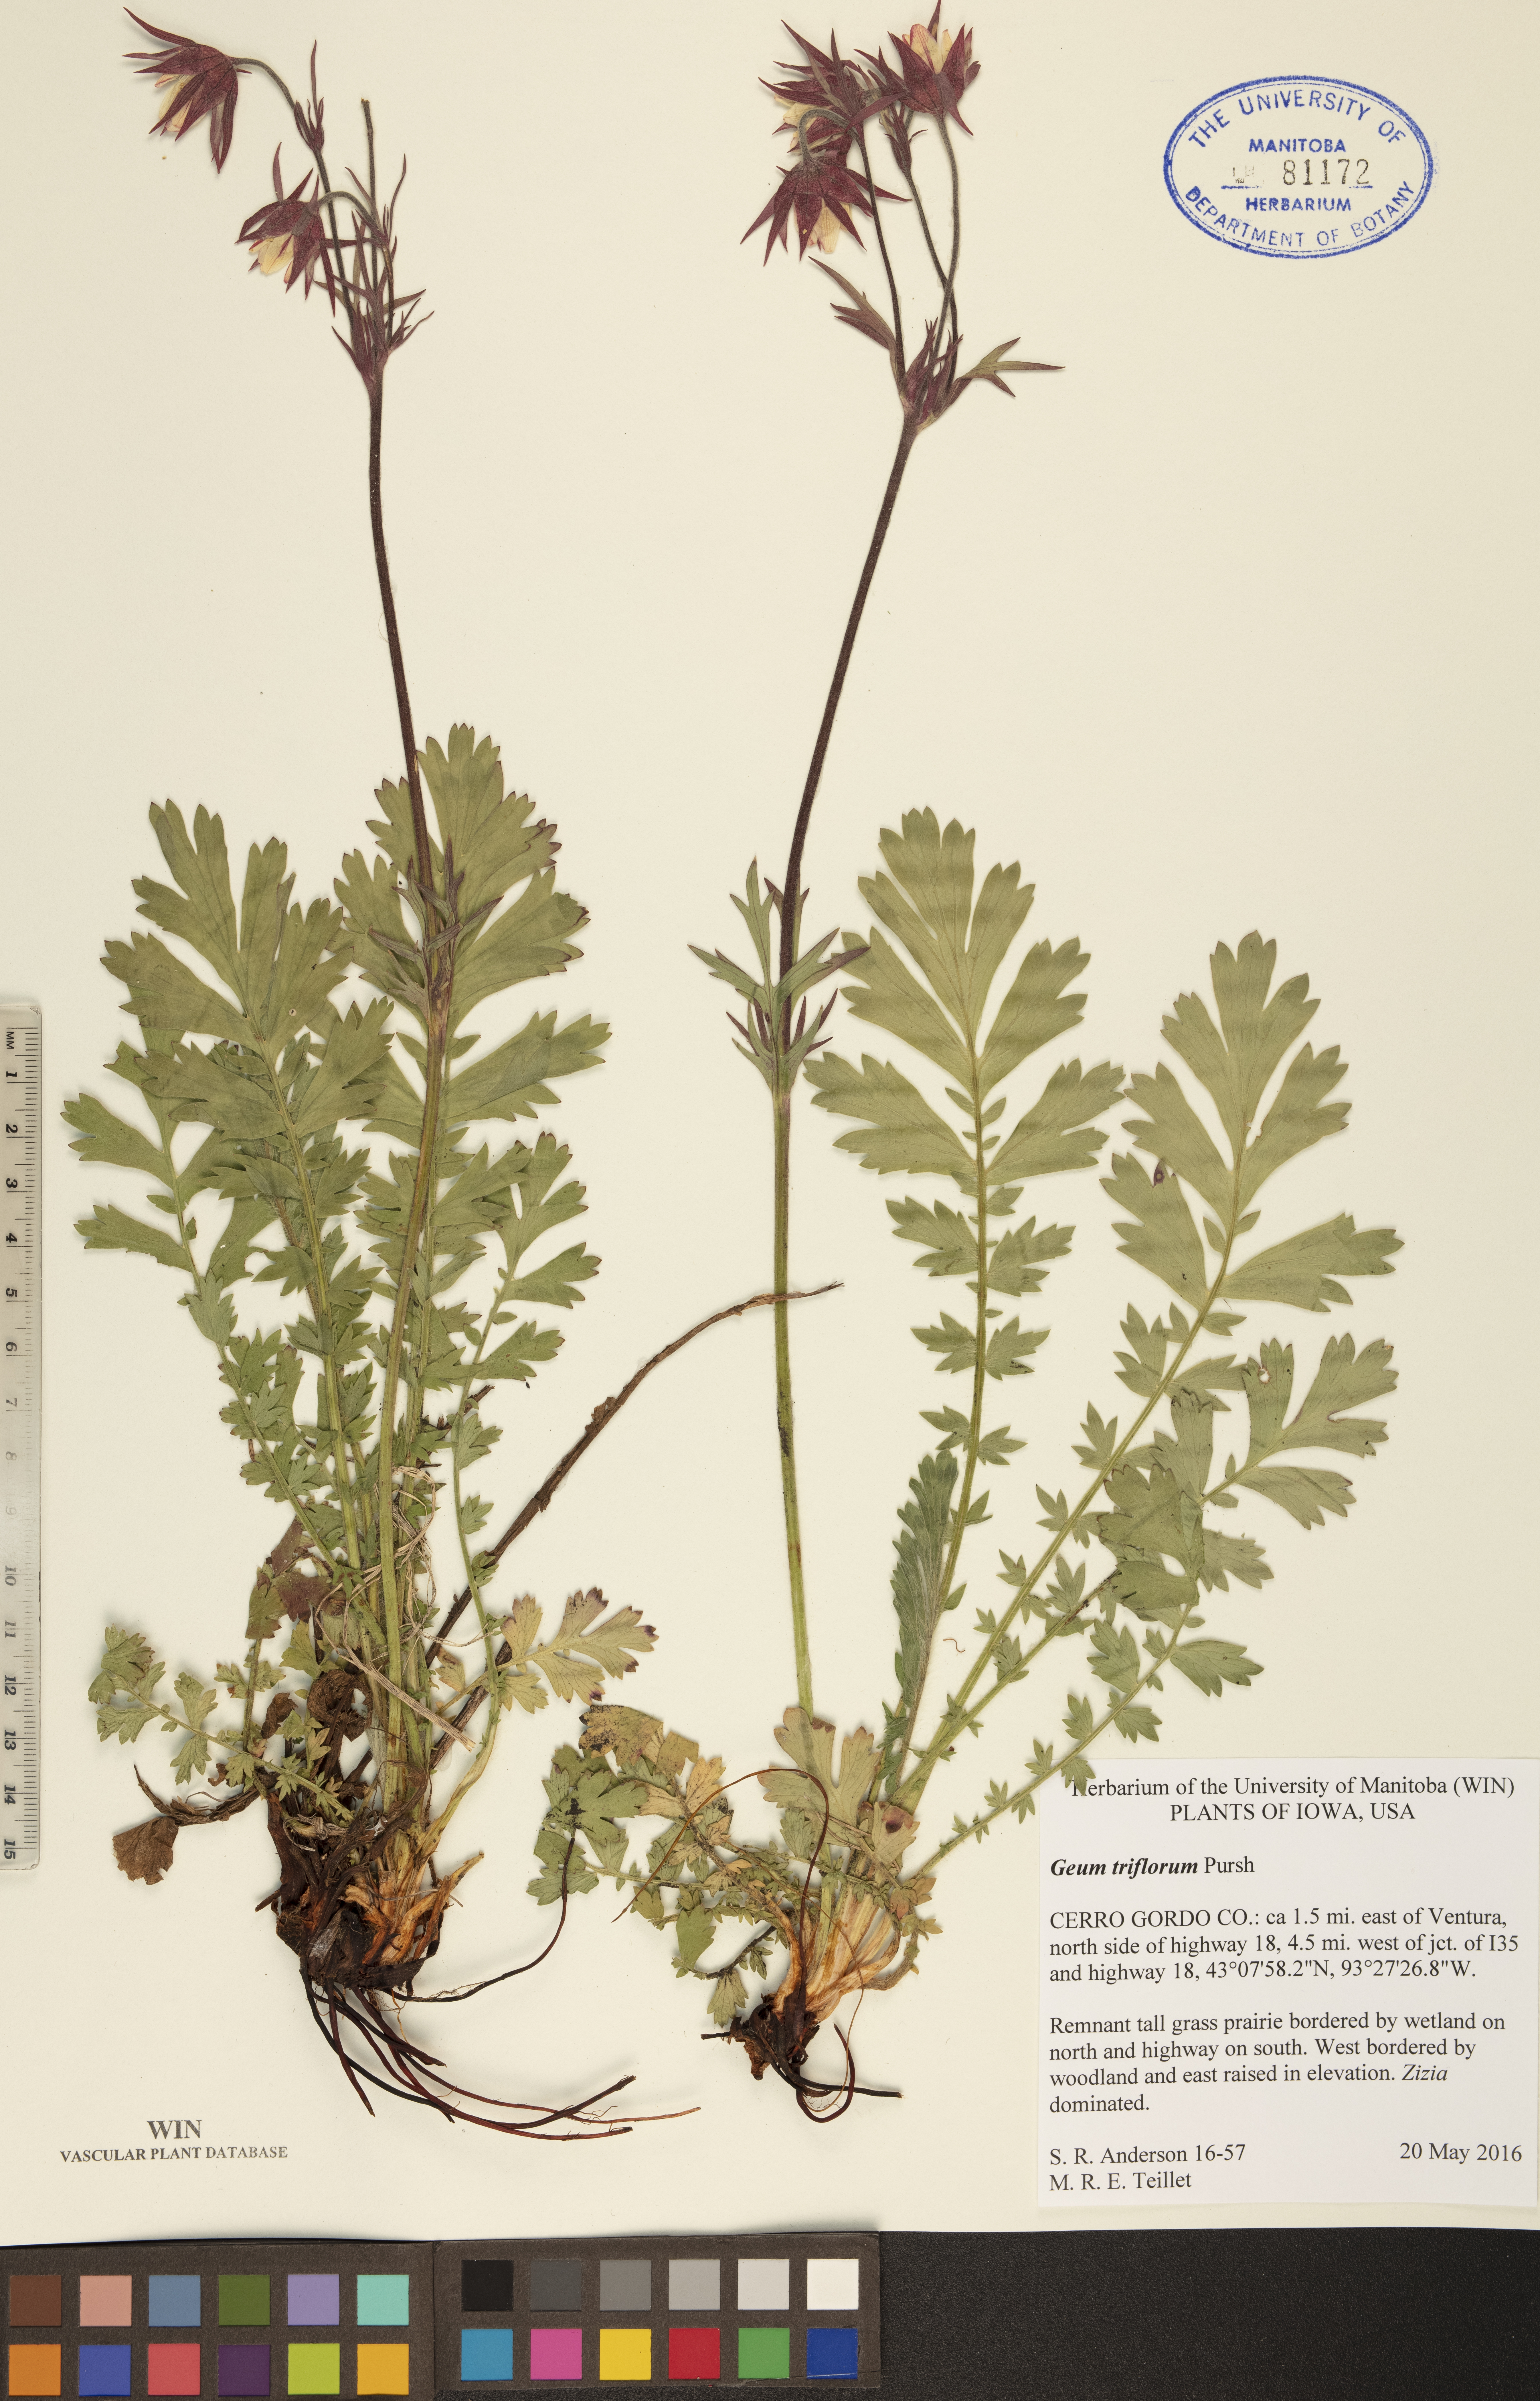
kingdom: Plantae
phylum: Tracheophyta
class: Magnoliopsida
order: Rosales
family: Rosaceae
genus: Geum
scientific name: Geum triflorum
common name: Old man's whiskers
